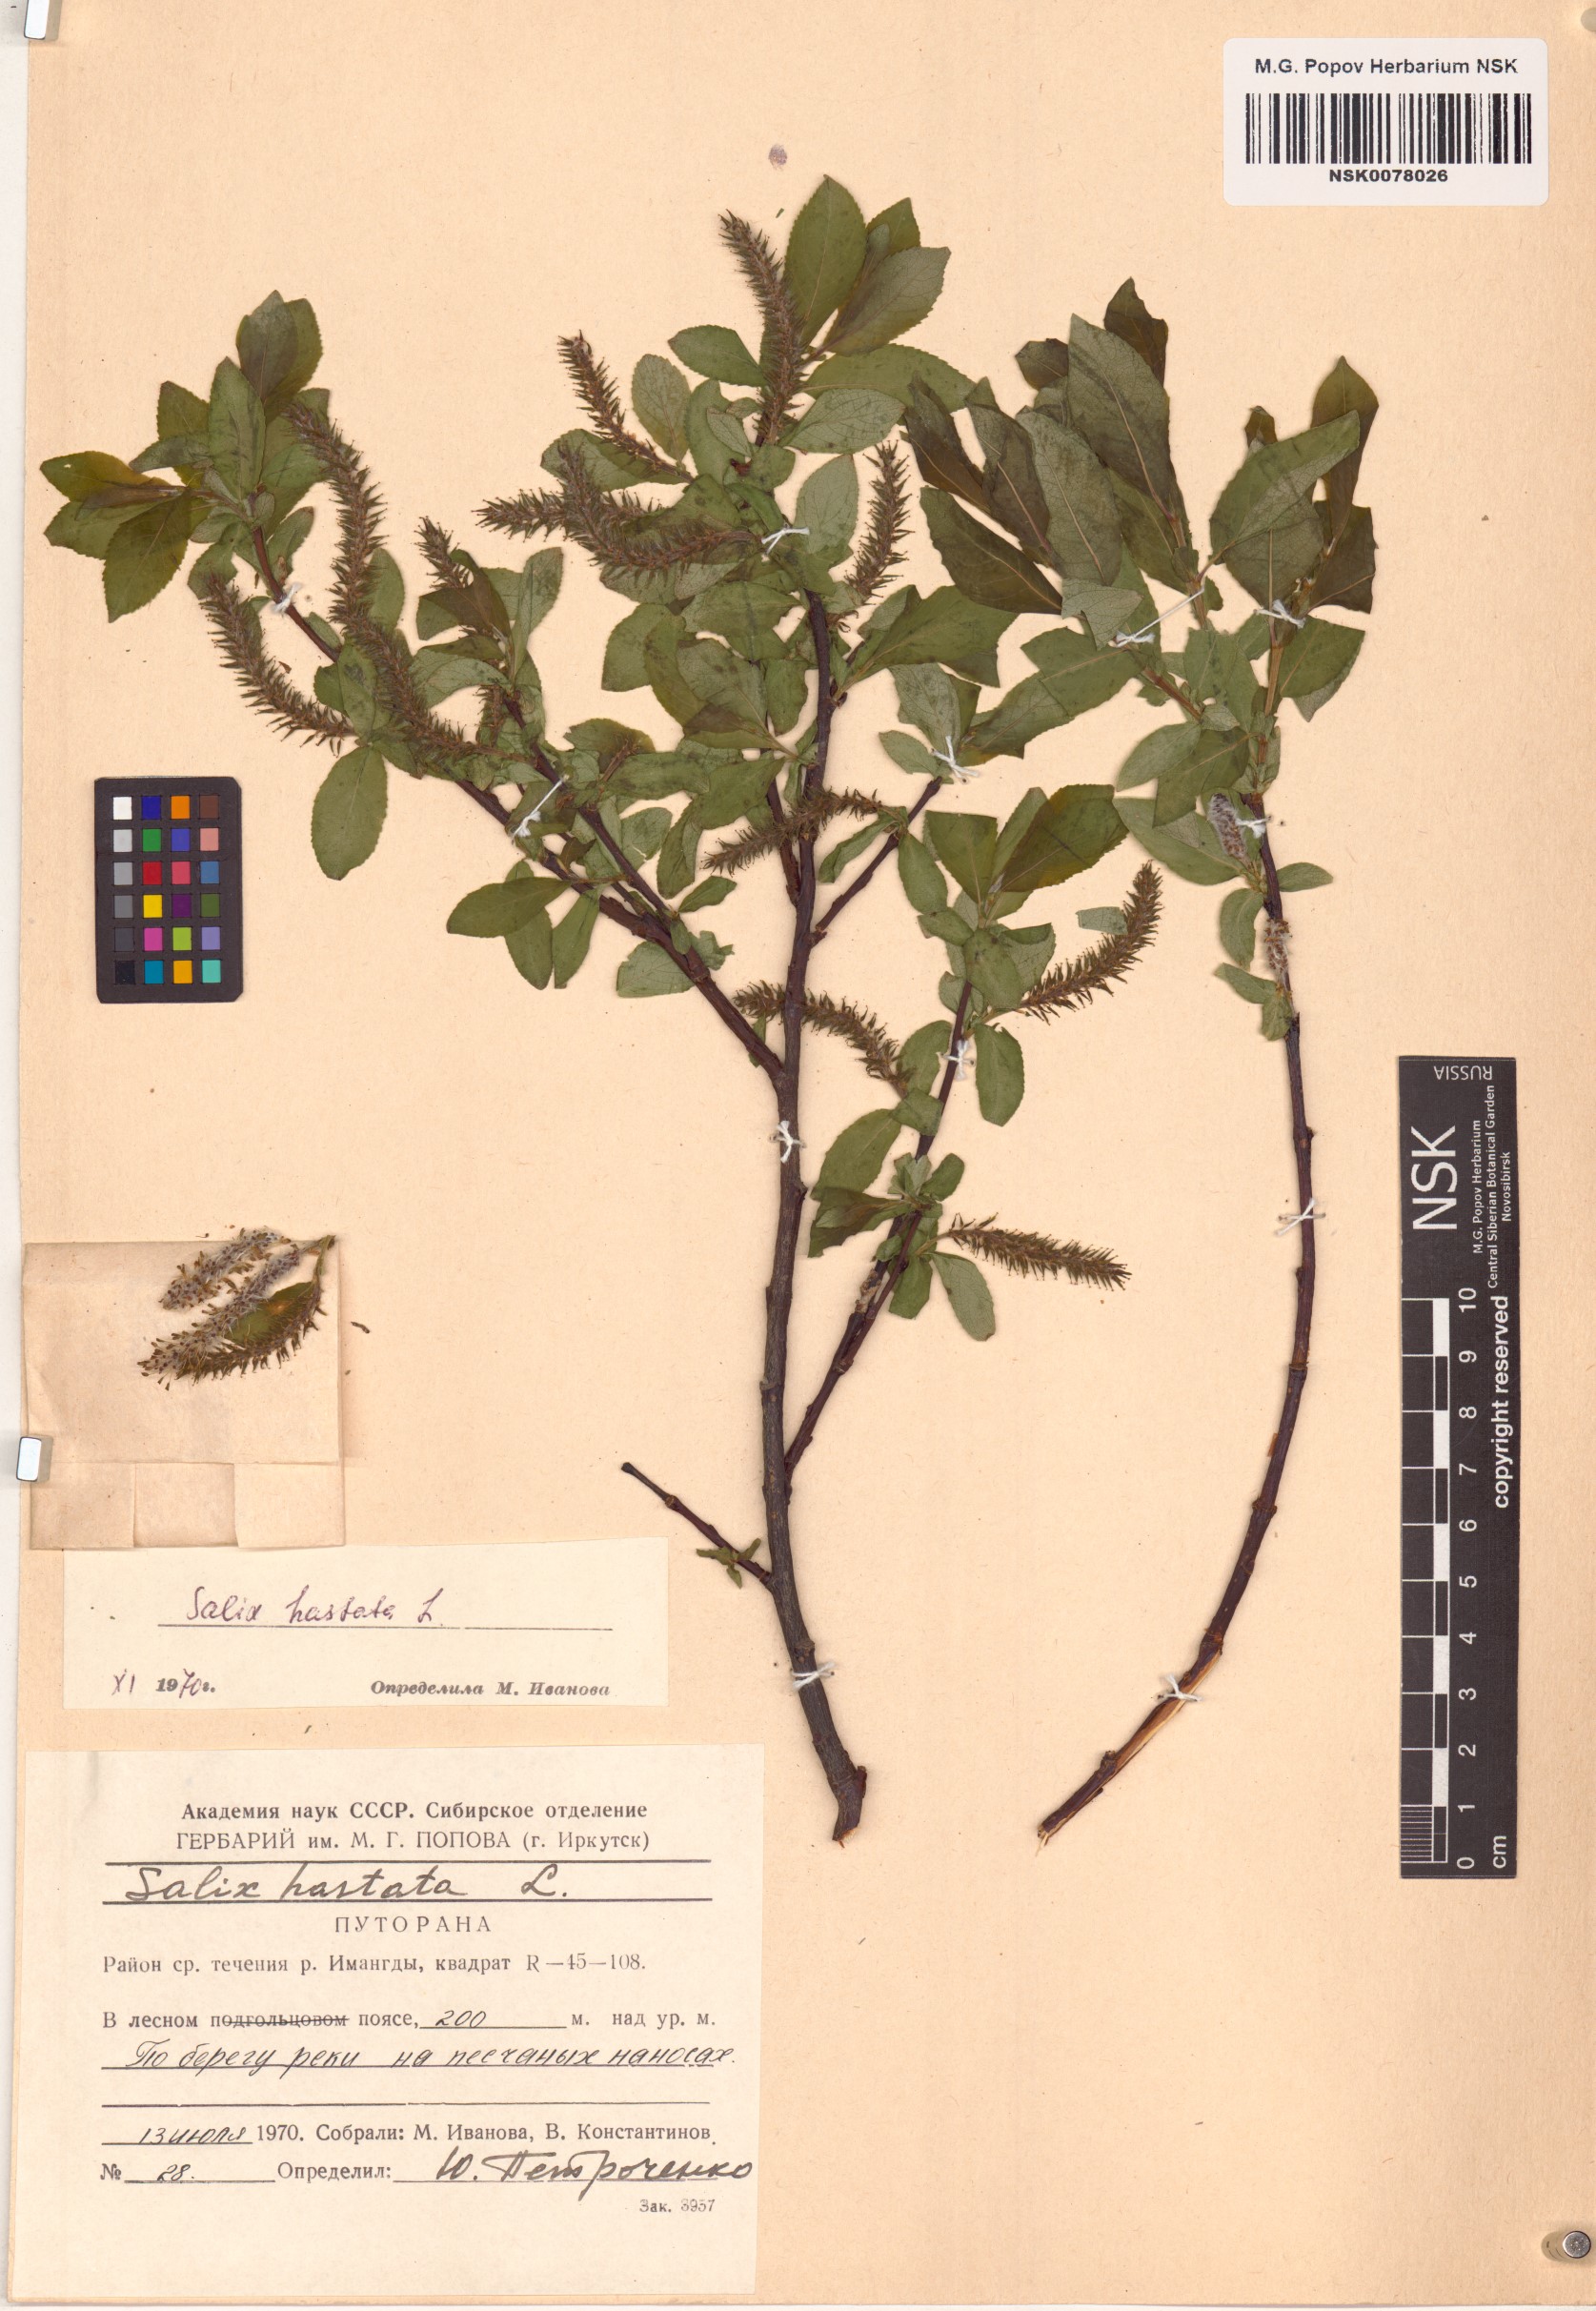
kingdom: Plantae
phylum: Tracheophyta
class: Magnoliopsida
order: Malpighiales
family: Salicaceae
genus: Salix
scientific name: Salix hastata
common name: Halberd willow
